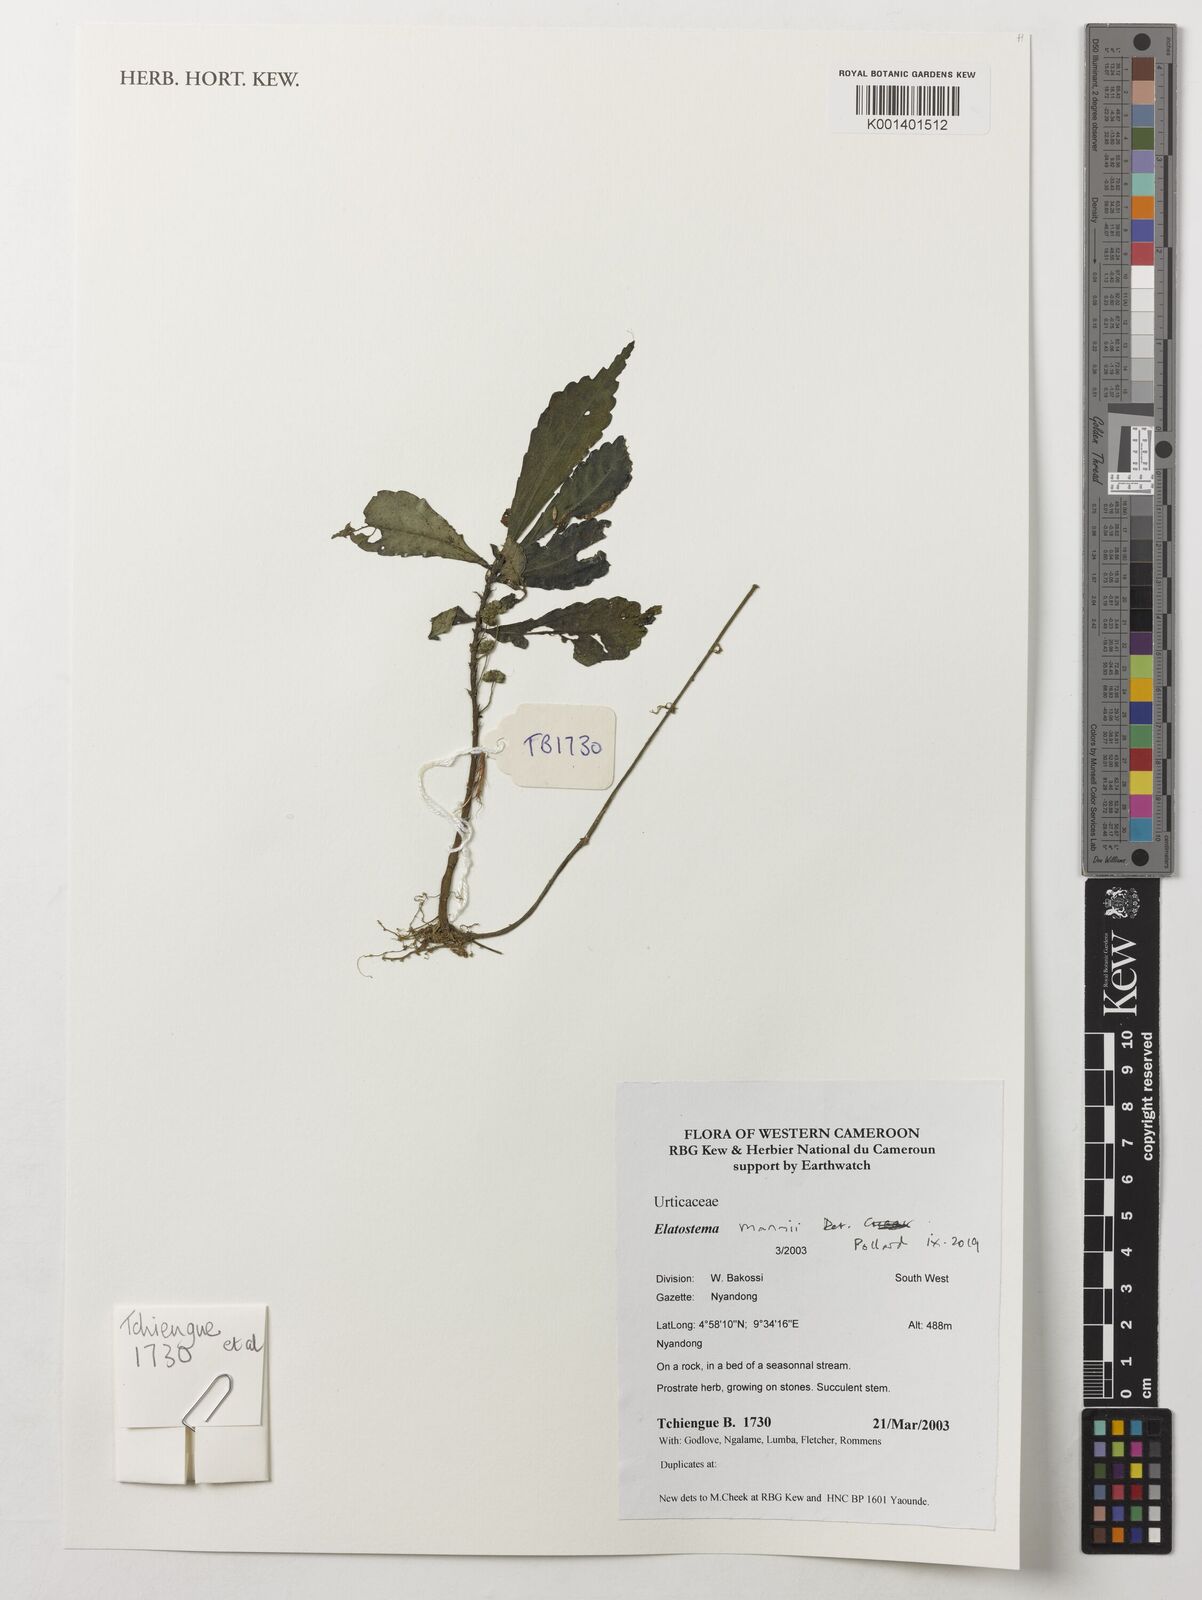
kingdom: Plantae
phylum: Tracheophyta
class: Magnoliopsida
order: Rosales
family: Urticaceae
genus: Elatostema
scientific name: Elatostema mannii
